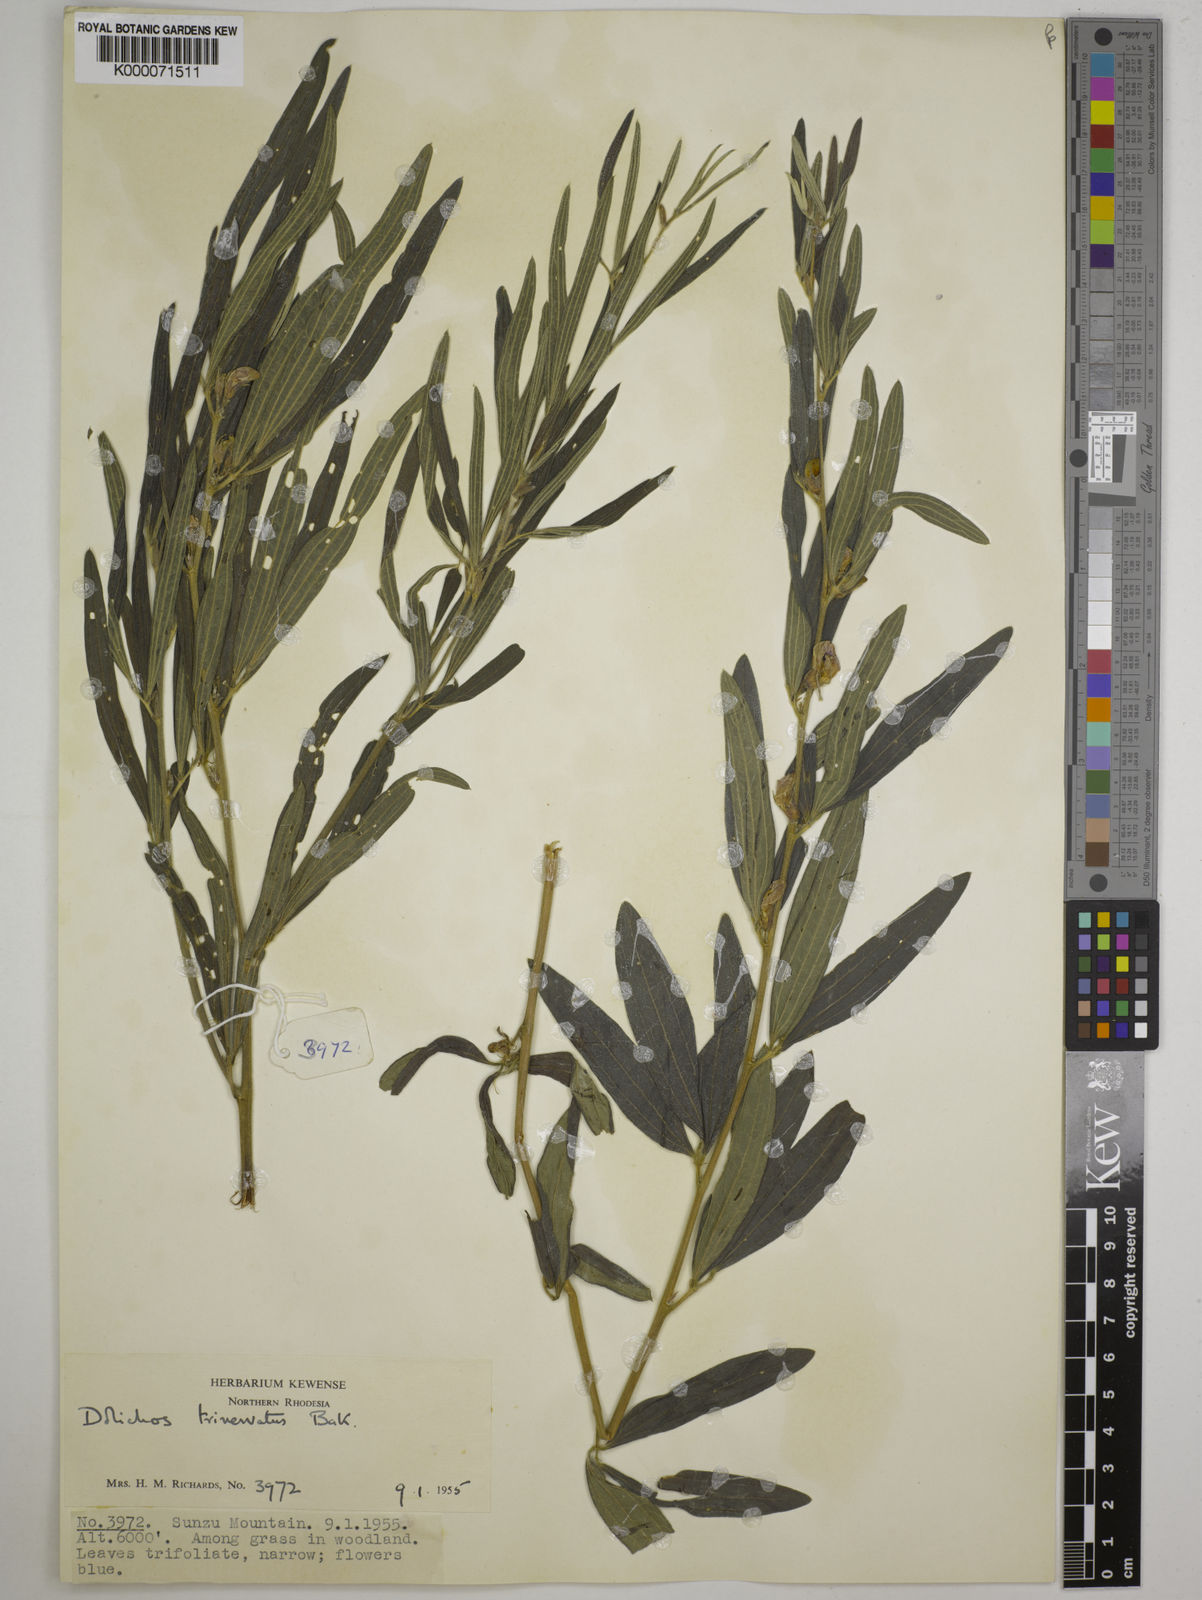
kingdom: Plantae
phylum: Tracheophyta
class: Magnoliopsida
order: Fabales
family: Fabaceae
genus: Dolichos
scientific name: Dolichos trinervatus
